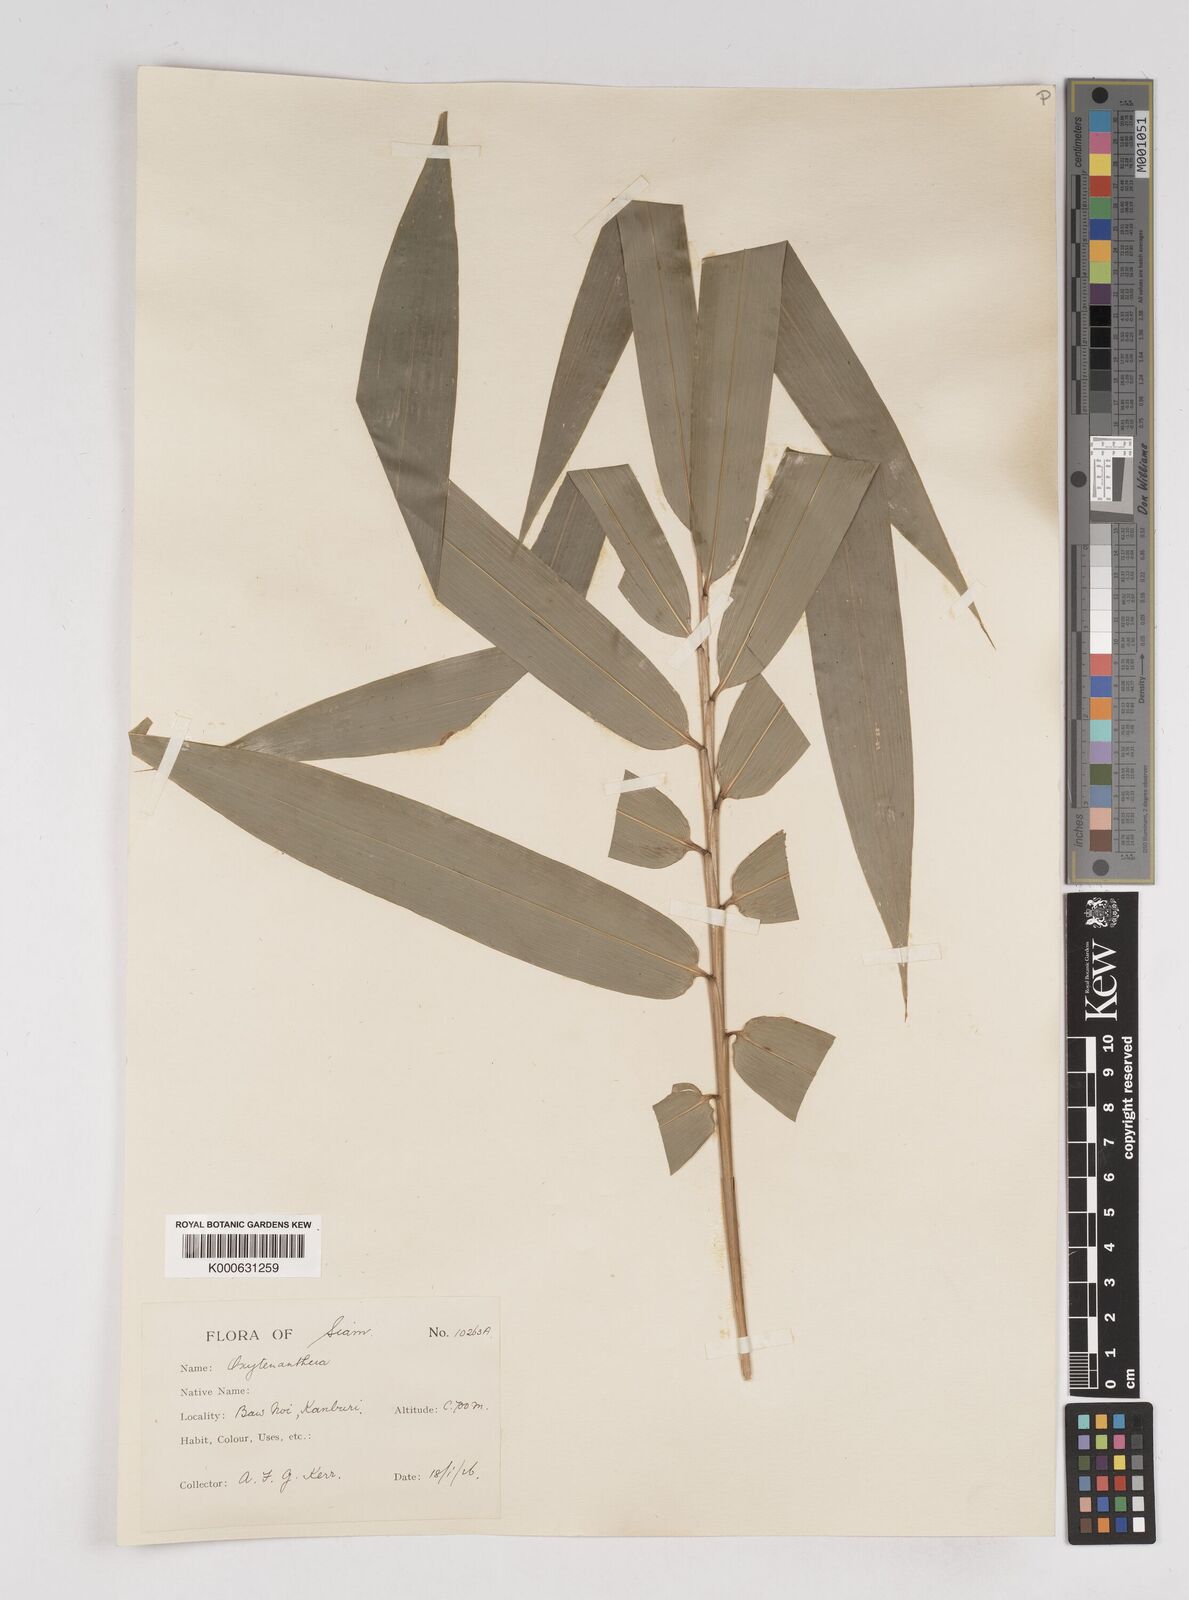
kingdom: Plantae
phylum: Tracheophyta
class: Liliopsida
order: Poales
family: Poaceae
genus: Gigantochloa
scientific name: Gigantochloa
